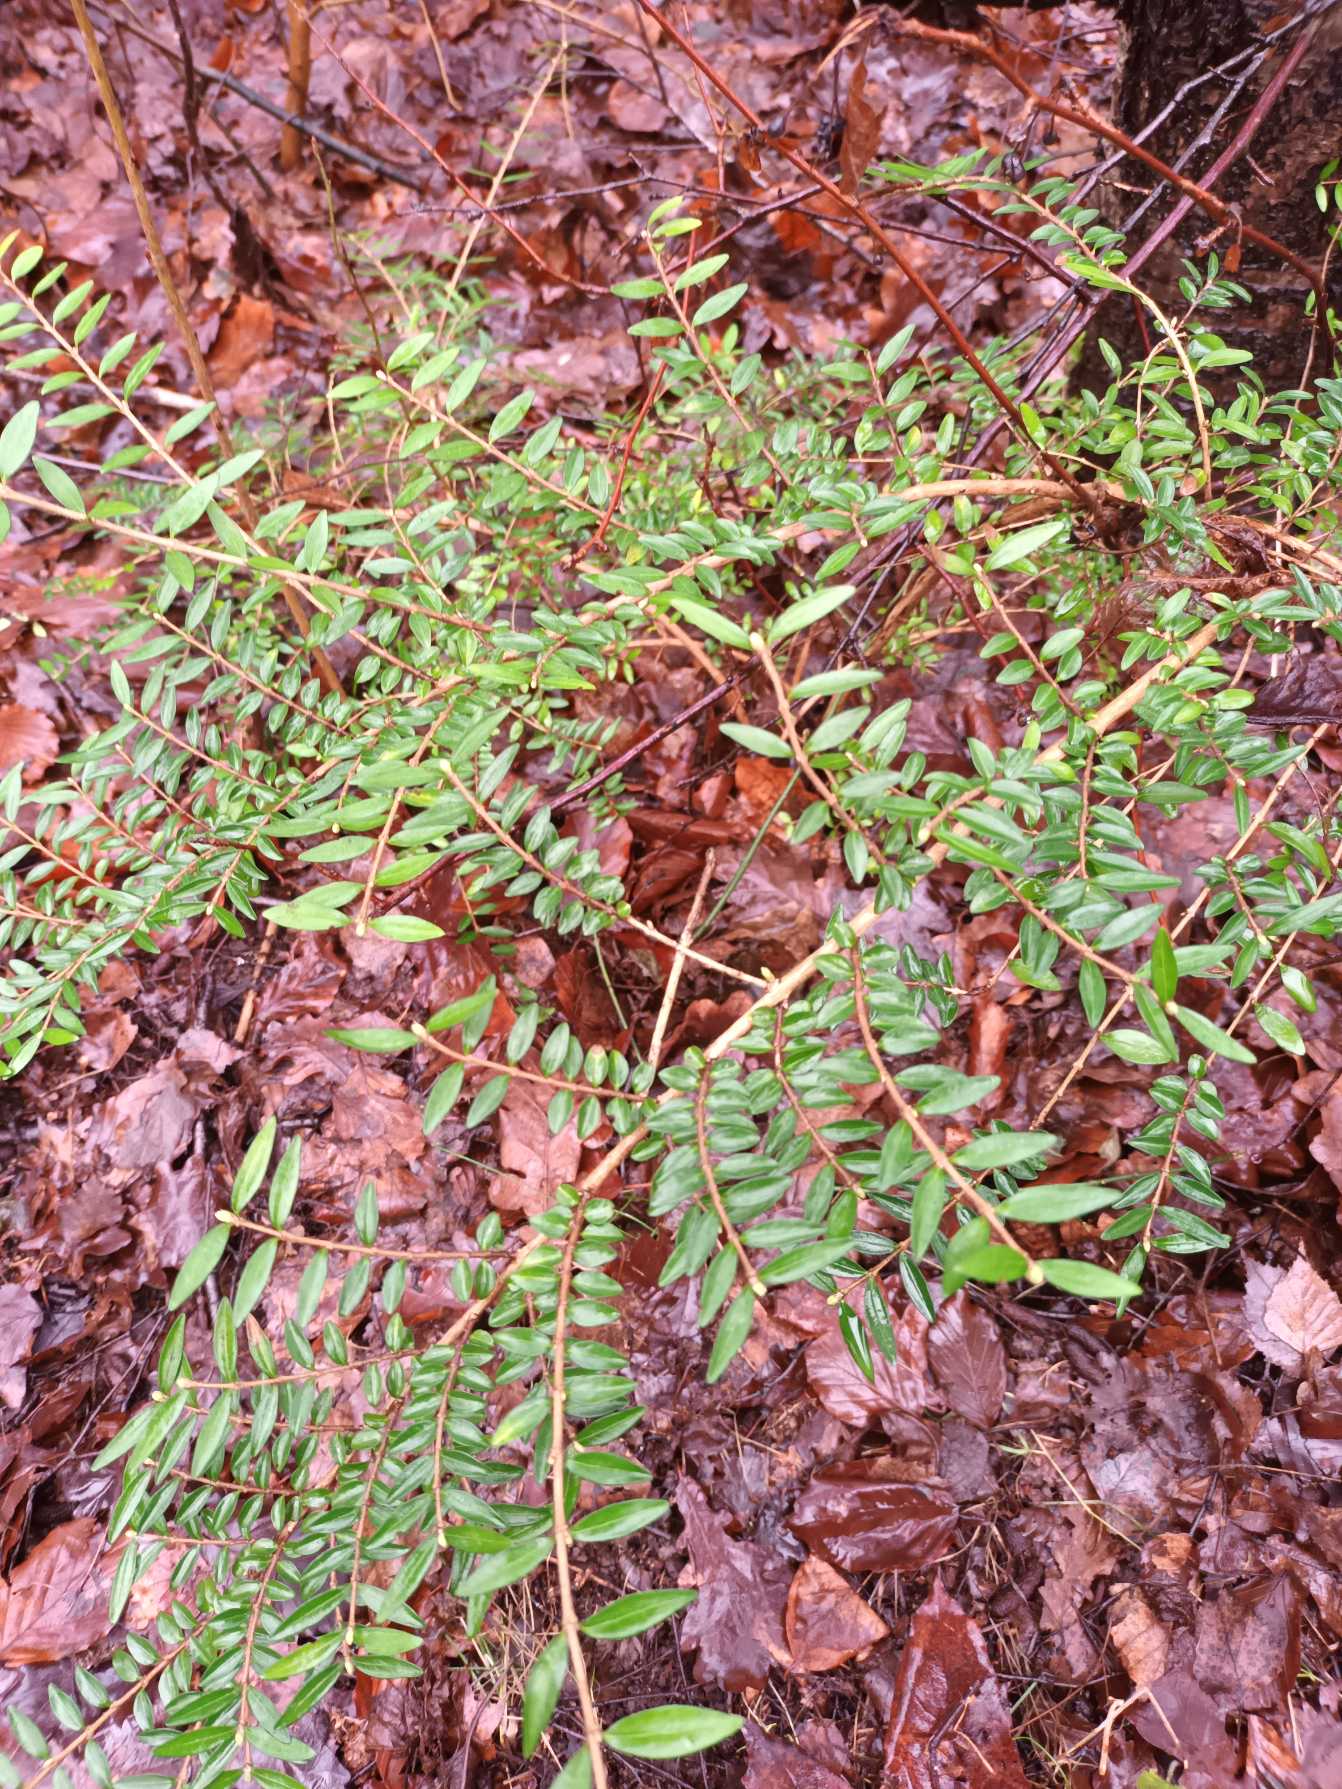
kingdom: Plantae
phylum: Tracheophyta
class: Magnoliopsida
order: Dipsacales
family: Caprifoliaceae
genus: Lonicera
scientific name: Lonicera pileata
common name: Liguster-gedeblad
